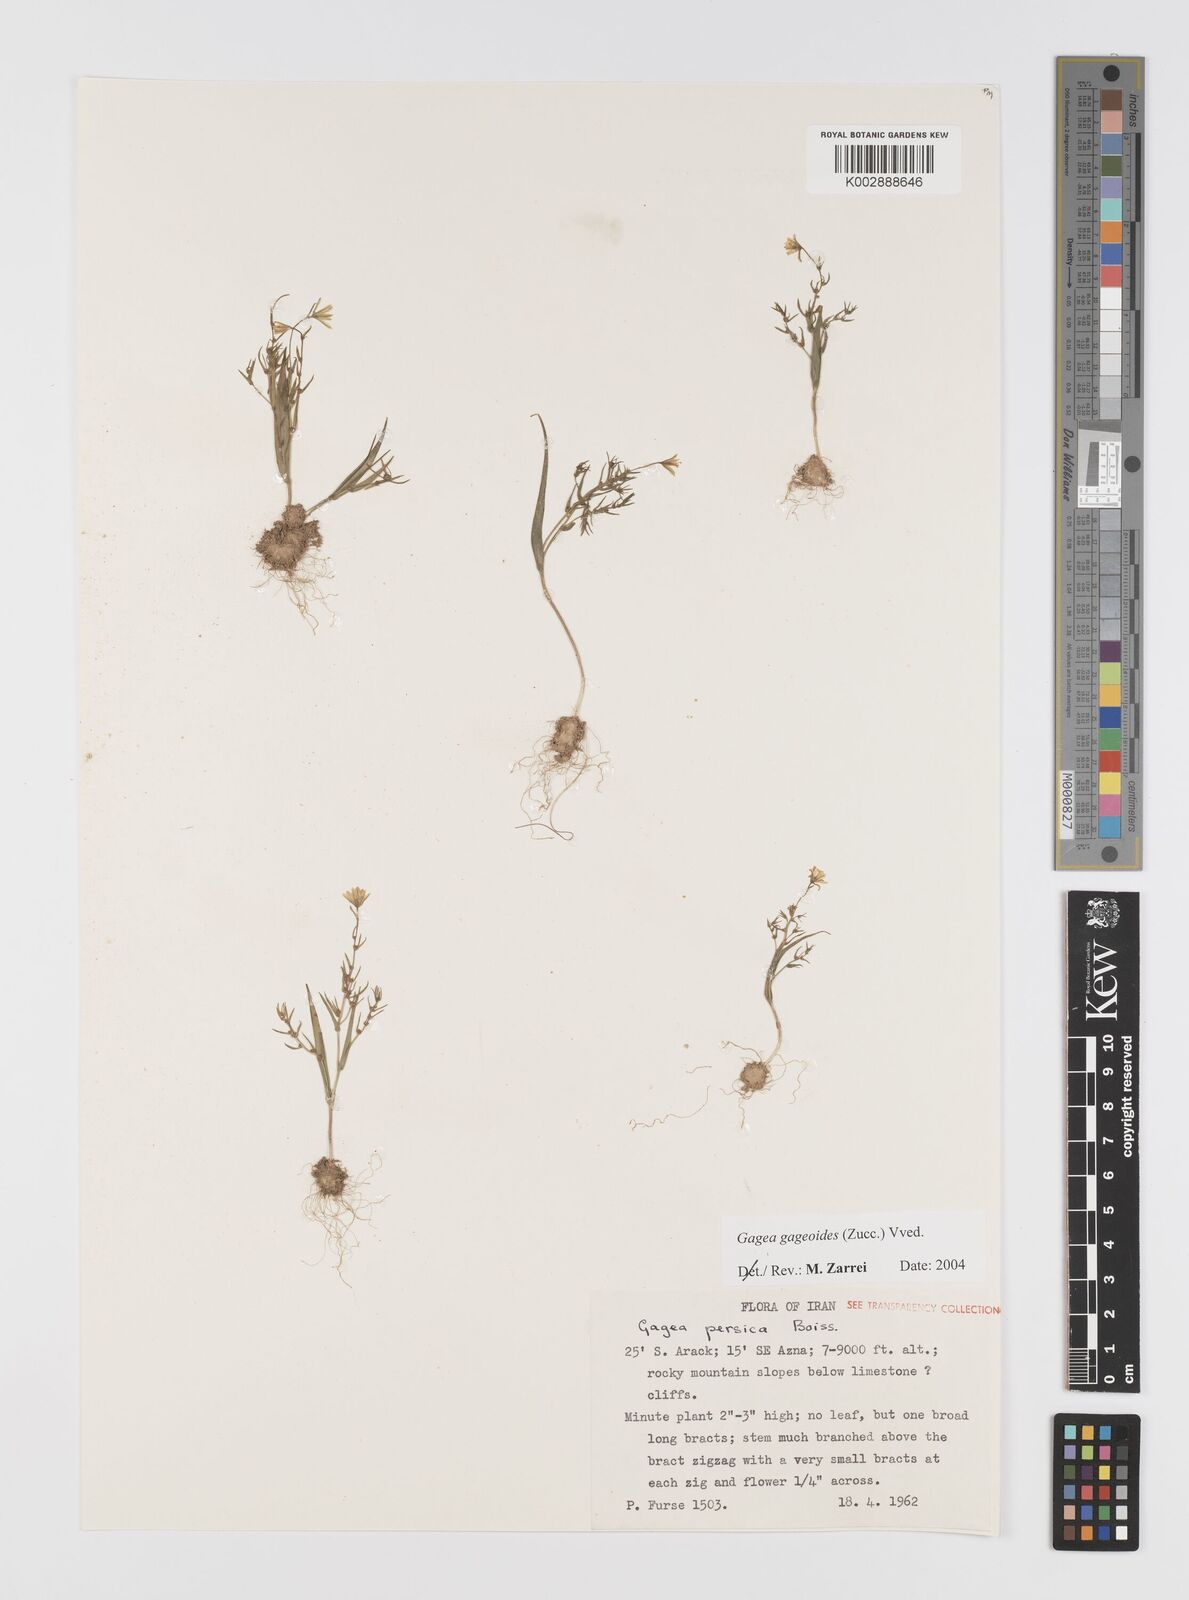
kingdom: Plantae
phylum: Tracheophyta
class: Liliopsida
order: Liliales
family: Liliaceae
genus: Gagea
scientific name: Gagea gageoides
